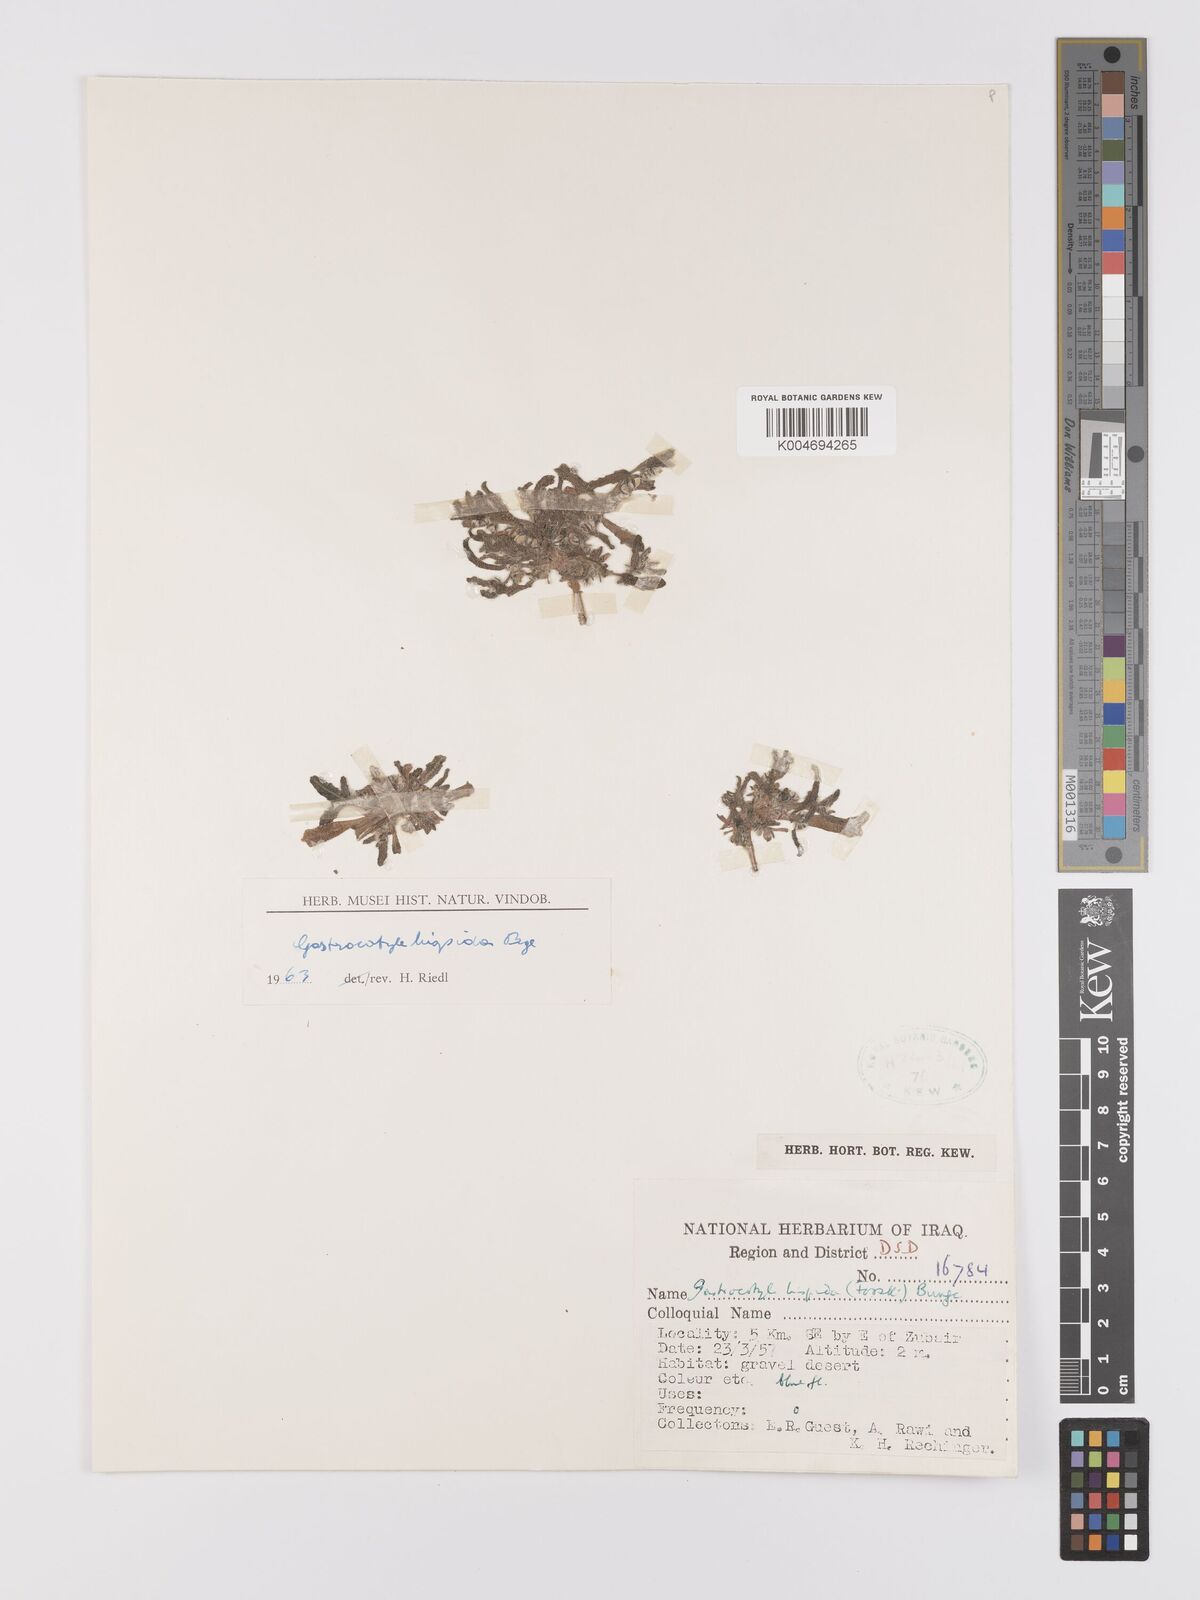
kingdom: Plantae
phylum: Tracheophyta
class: Magnoliopsida
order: Boraginales
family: Boraginaceae
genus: Gastrocotyle
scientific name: Gastrocotyle hispida
